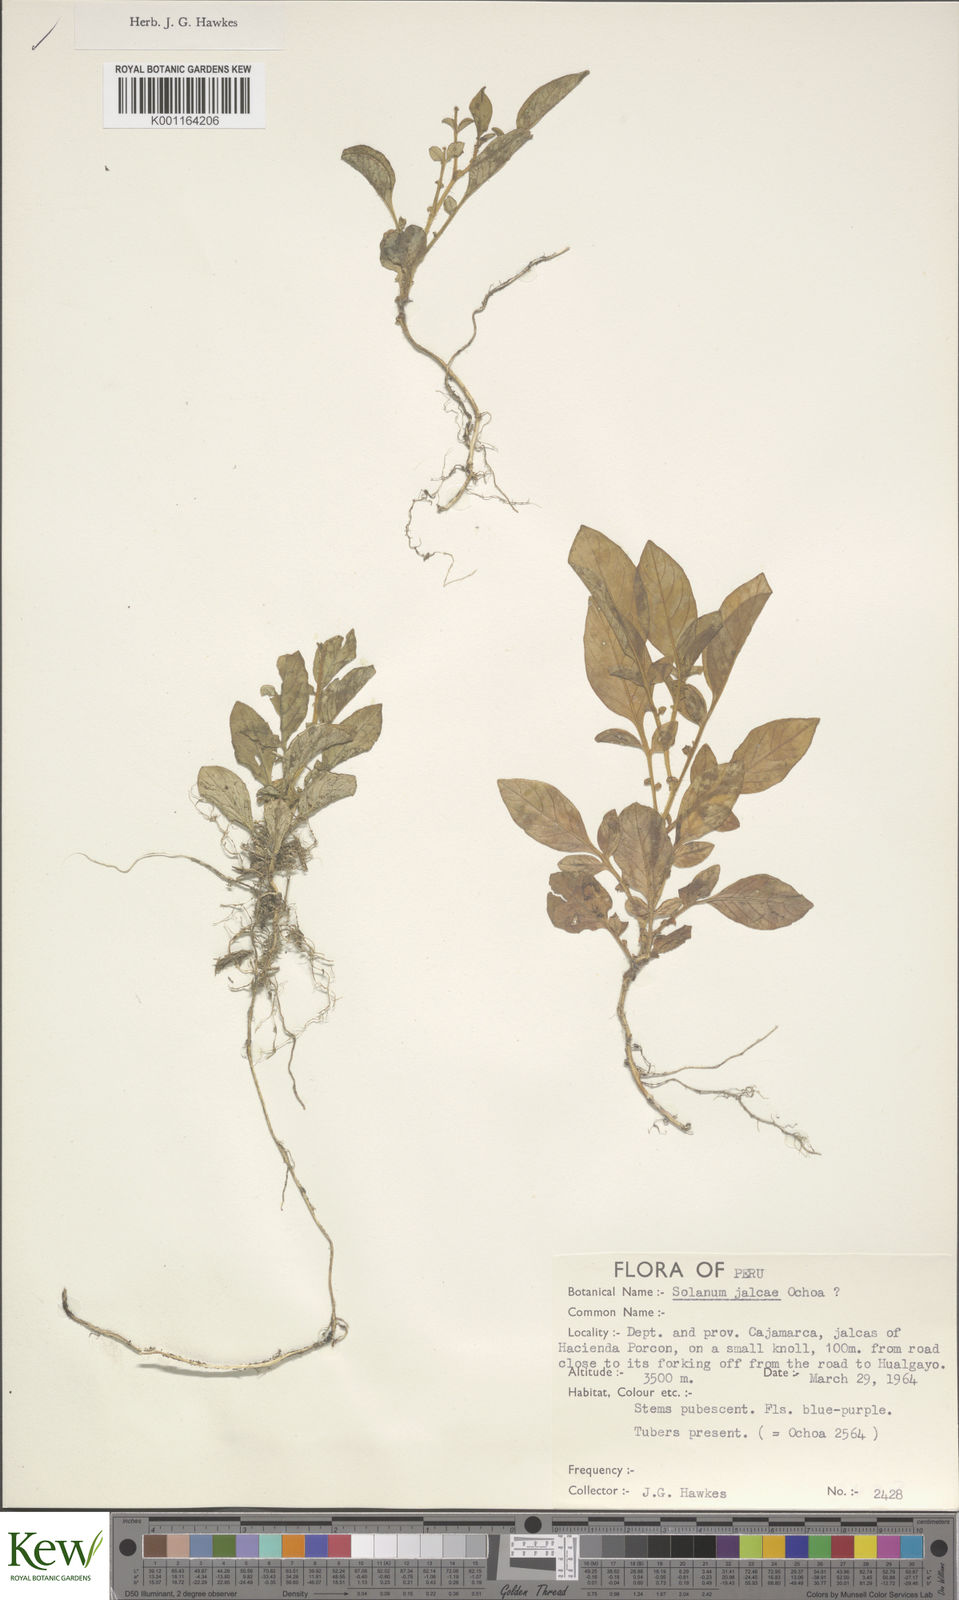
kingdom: Plantae
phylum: Tracheophyta
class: Magnoliopsida
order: Solanales
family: Solanaceae
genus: Solanum
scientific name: Solanum chomatophilum
